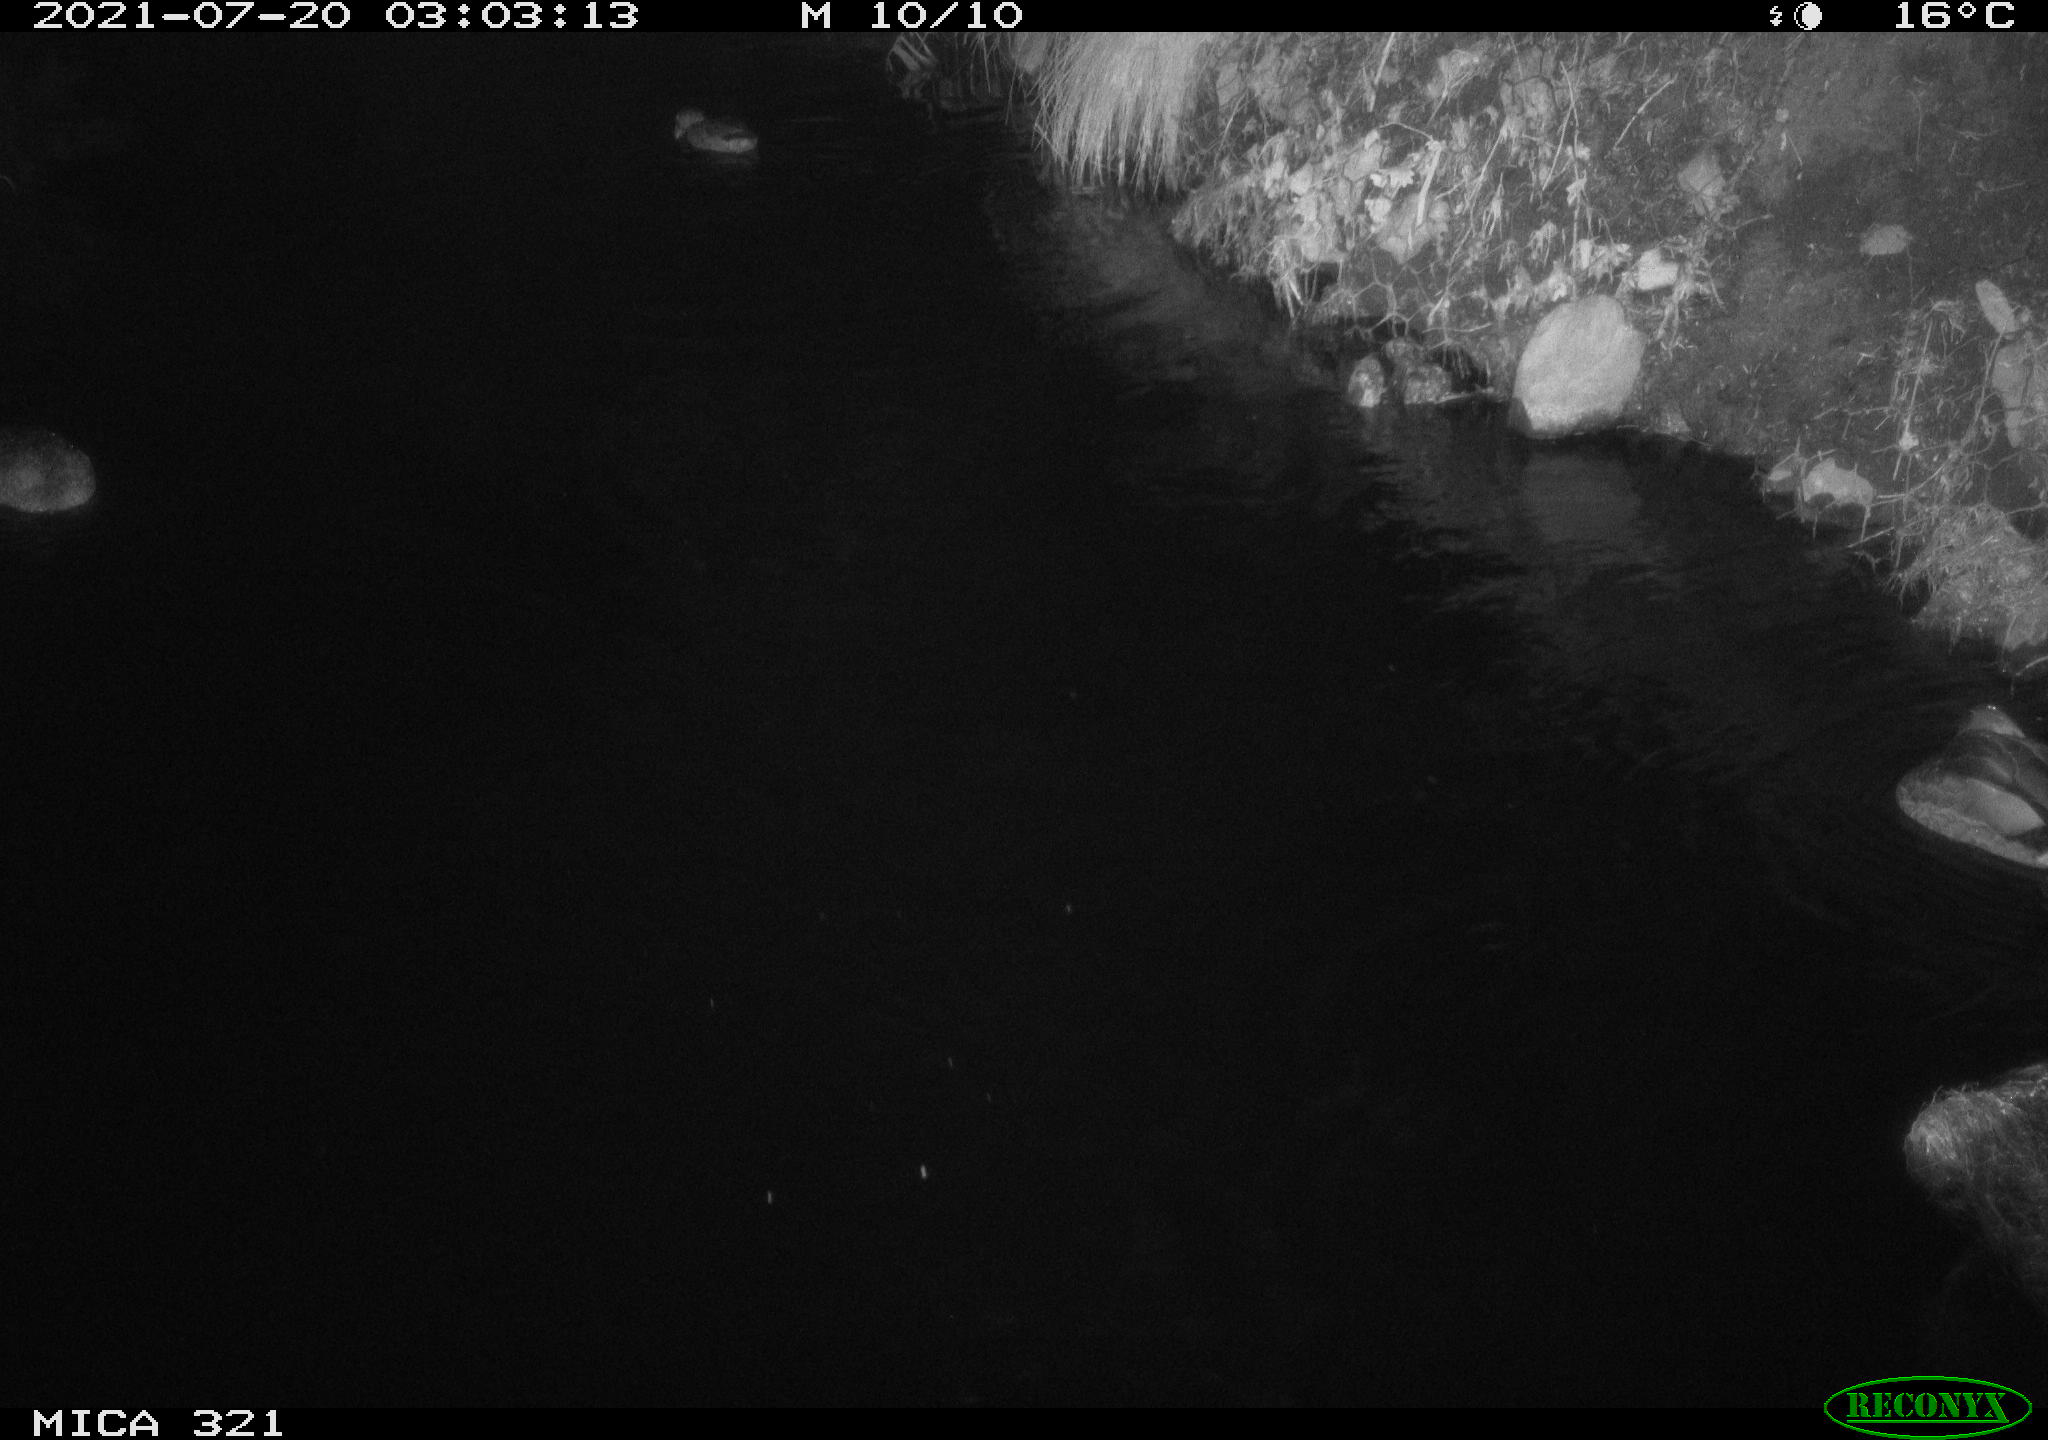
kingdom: Animalia
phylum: Chordata
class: Aves
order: Anseriformes
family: Anatidae
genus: Anas
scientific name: Anas platyrhynchos
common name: Mallard
